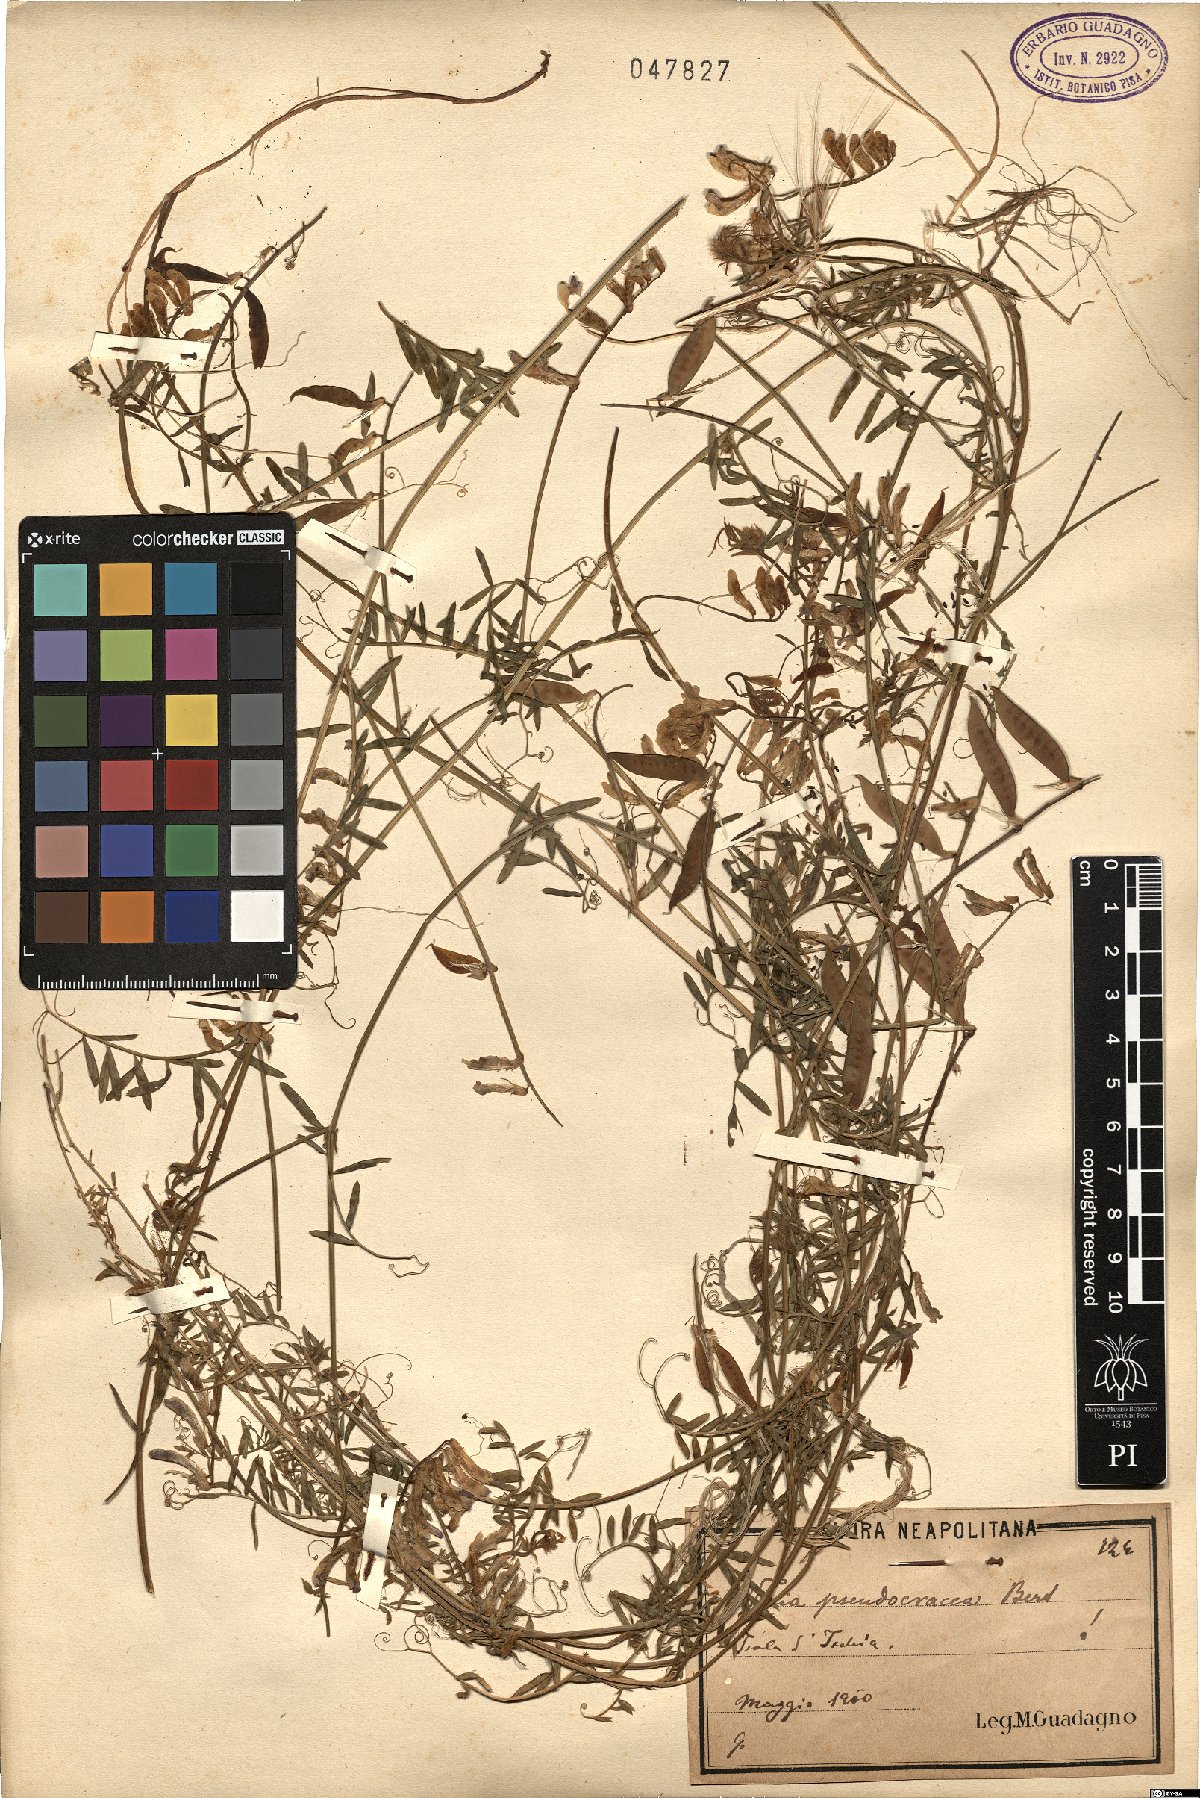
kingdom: Plantae
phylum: Tracheophyta
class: Magnoliopsida
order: Fabales
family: Fabaceae
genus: Vicia
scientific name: Vicia villosa
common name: Fodder vetch
